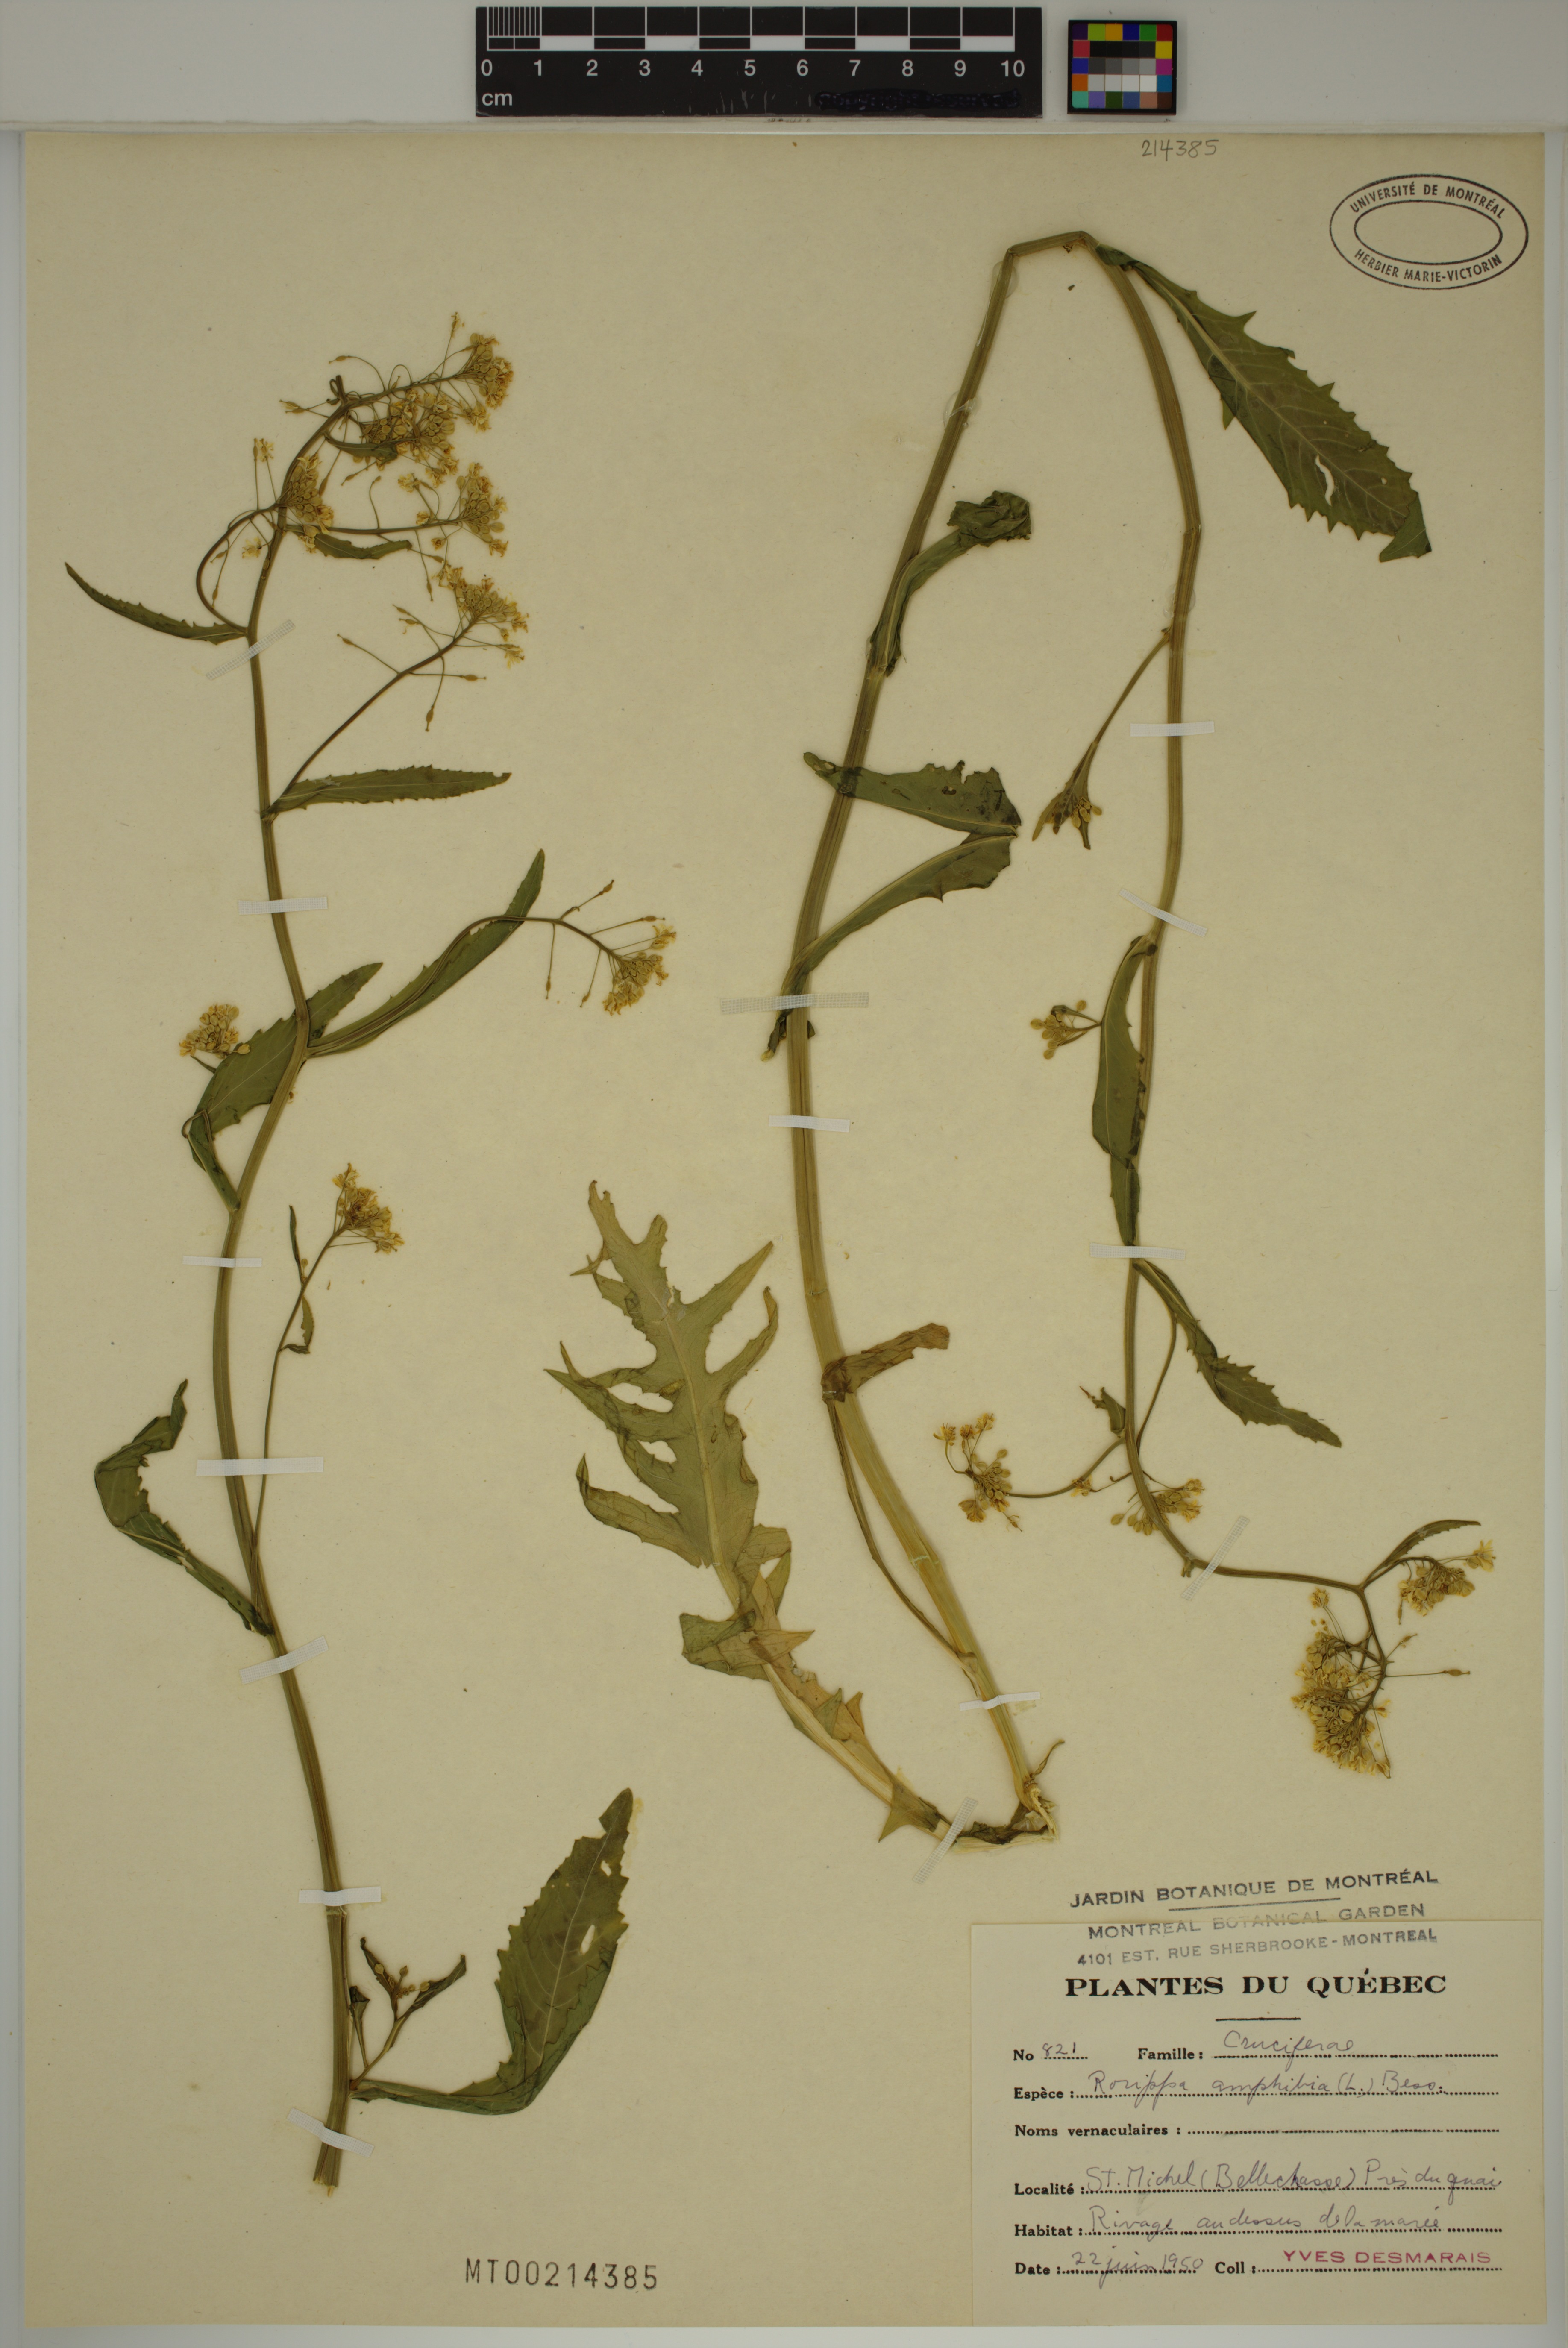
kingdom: Plantae
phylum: Tracheophyta
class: Magnoliopsida
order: Brassicales
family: Brassicaceae
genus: Rorippa
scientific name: Rorippa amphibia
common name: Great yellow-cress
